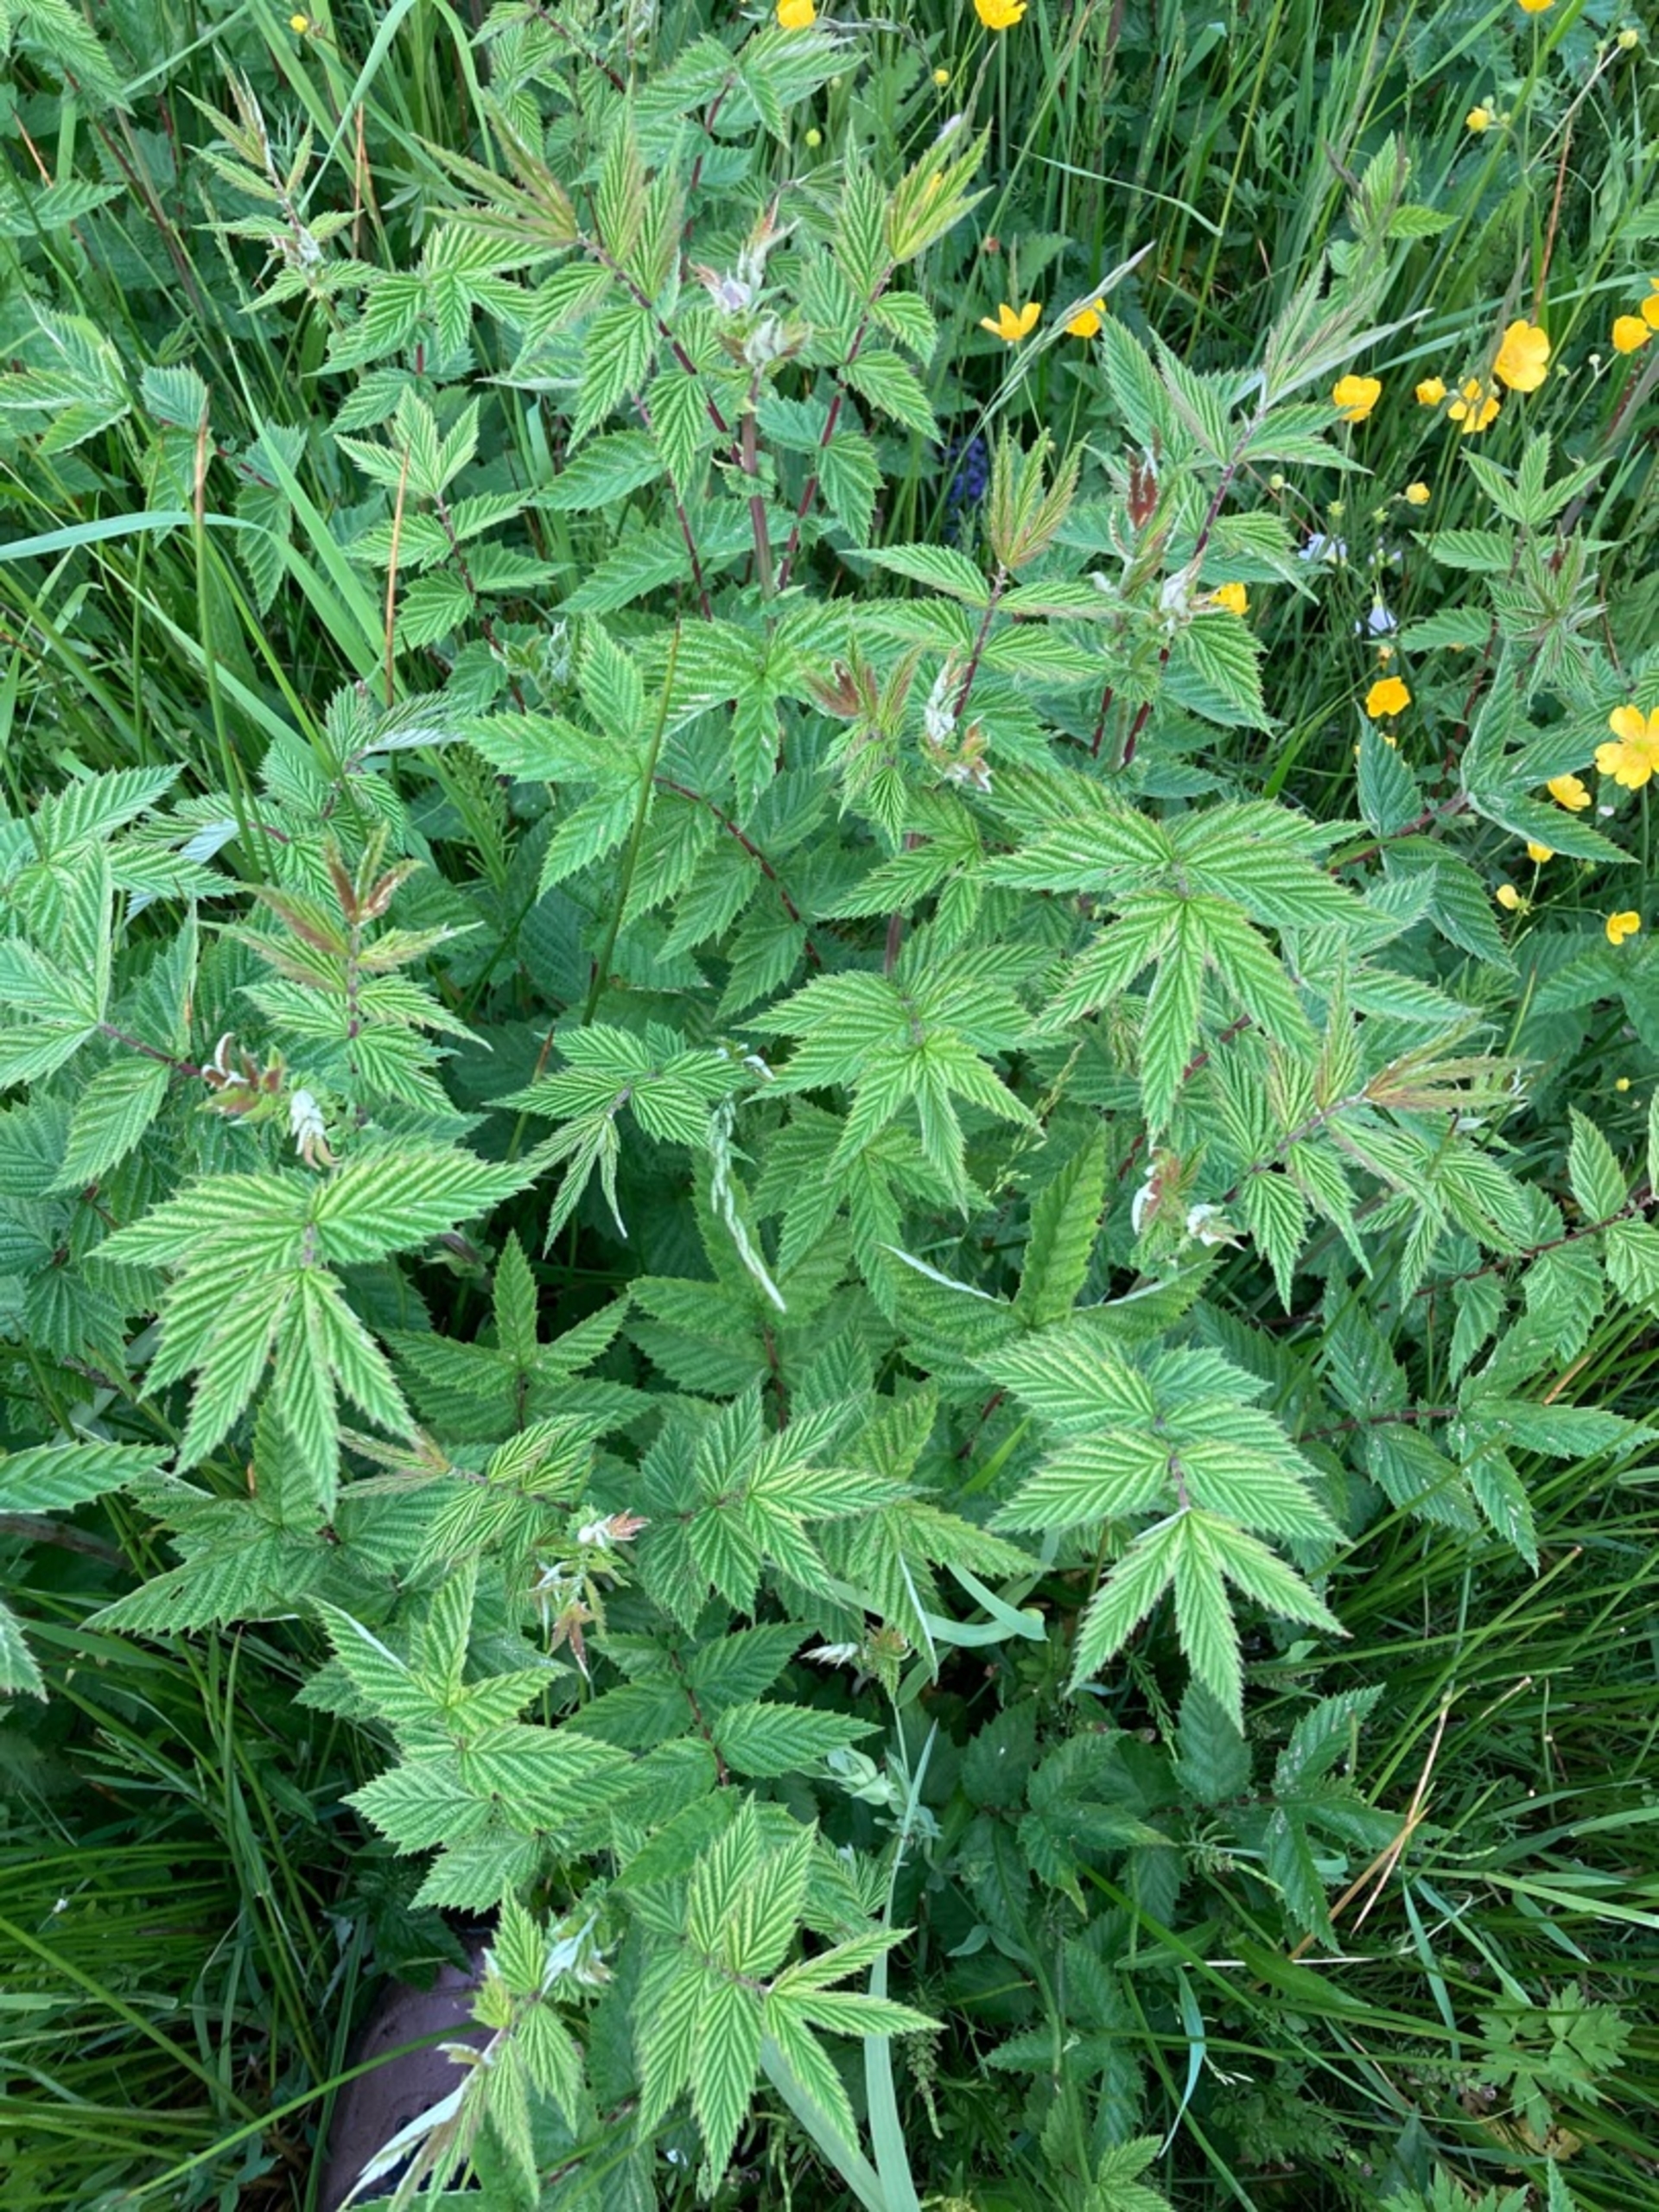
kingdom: Plantae
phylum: Tracheophyta
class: Magnoliopsida
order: Rosales
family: Rosaceae
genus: Filipendula
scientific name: Filipendula ulmaria
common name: Almindelig mjødurt
